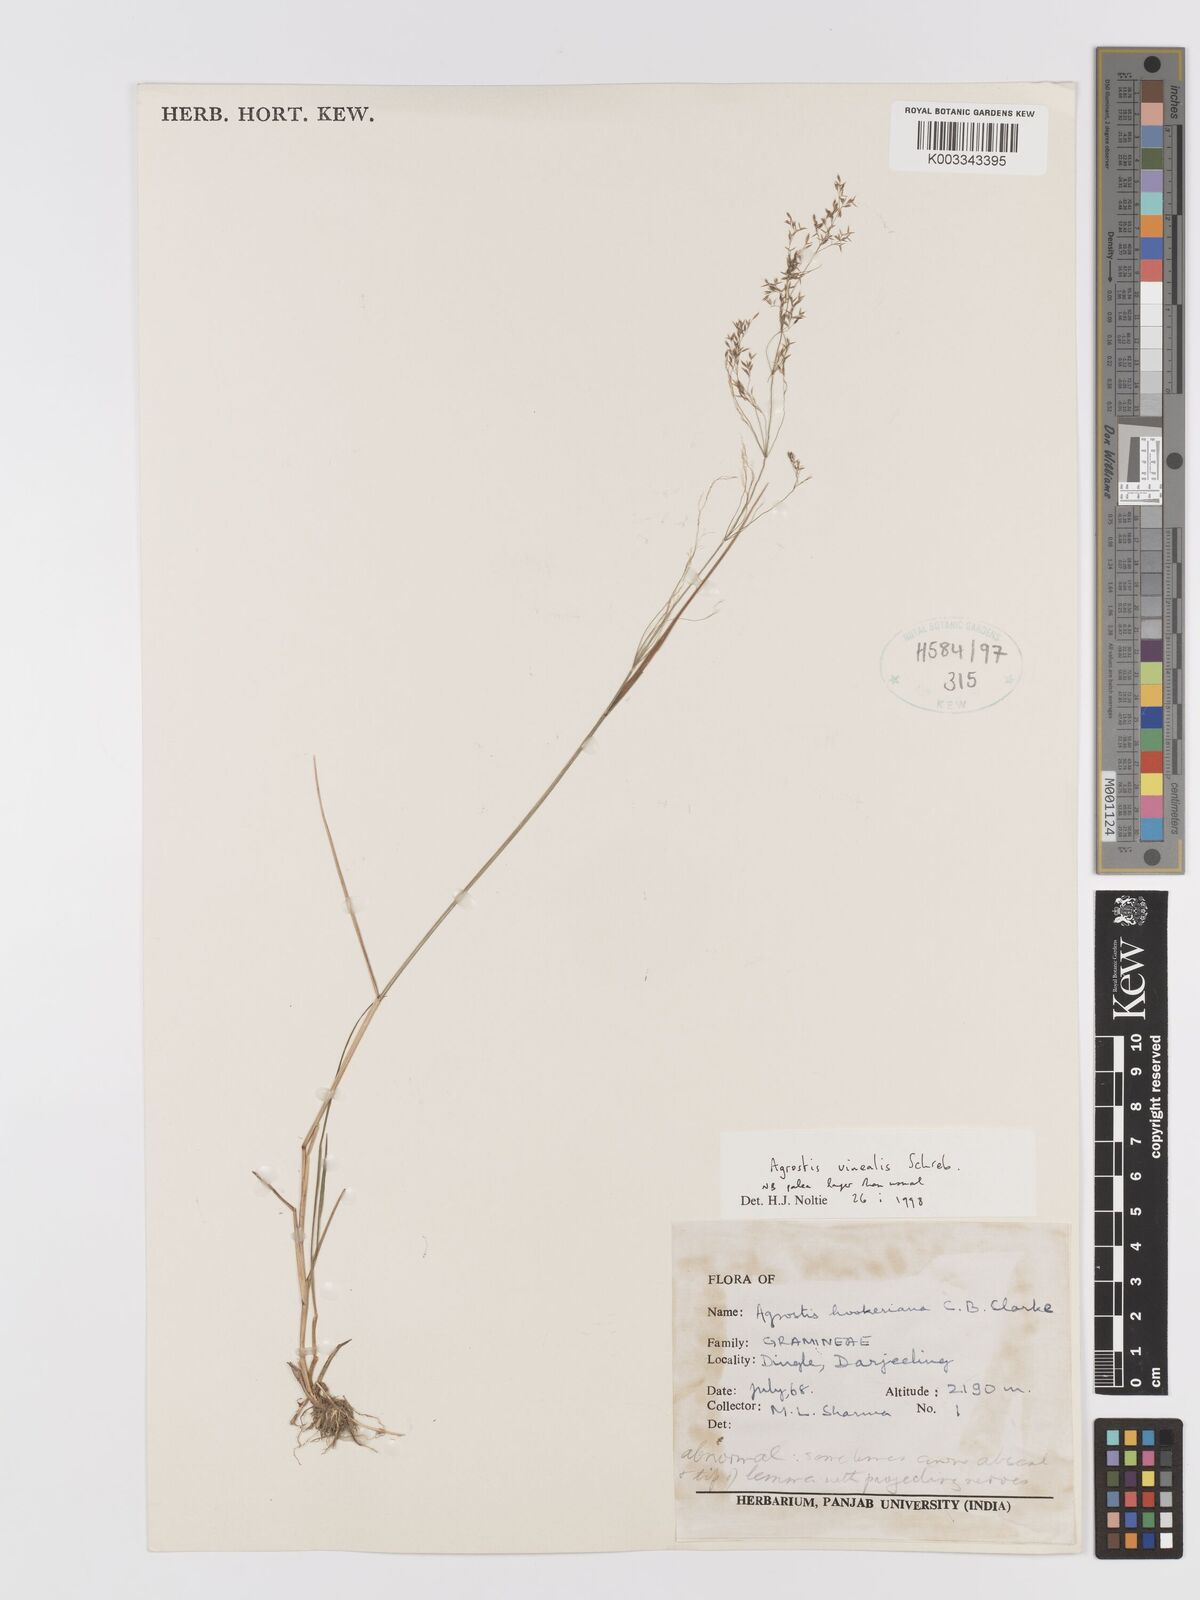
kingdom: Plantae
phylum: Tracheophyta
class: Liliopsida
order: Poales
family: Poaceae
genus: Agrostis
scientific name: Agrostis vinealis
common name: Brown bent
